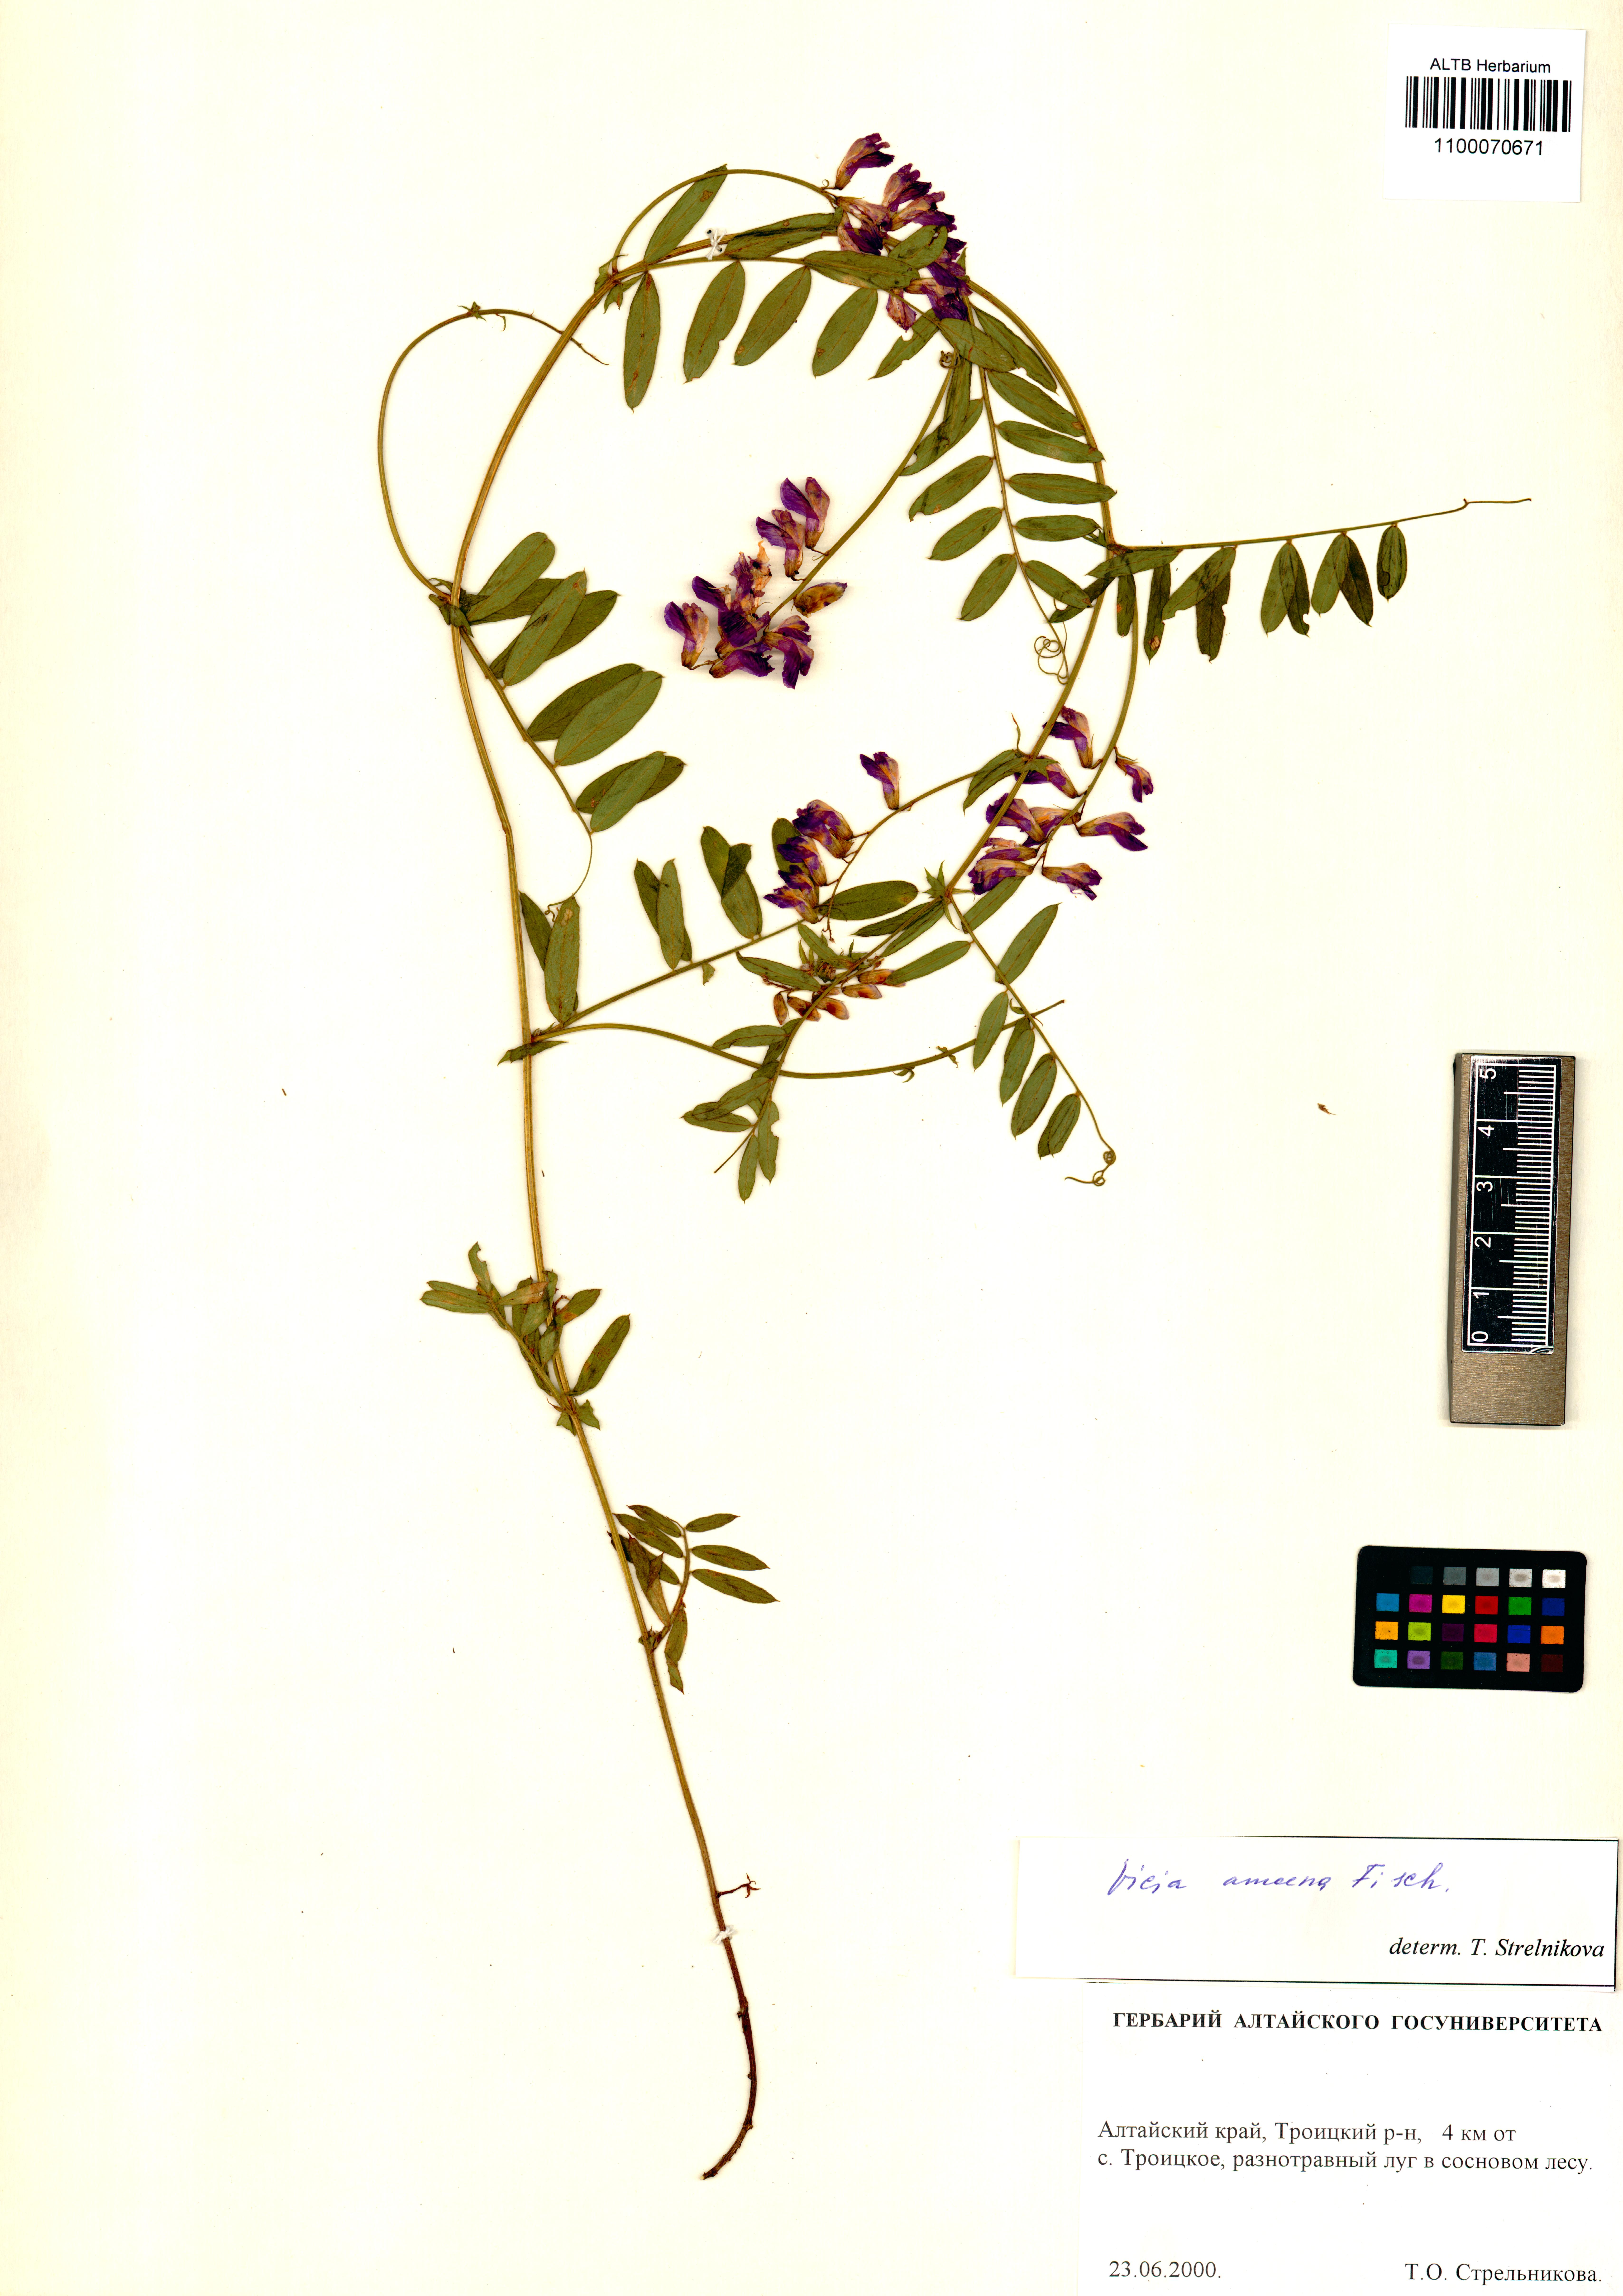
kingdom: Plantae
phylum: Tracheophyta
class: Magnoliopsida
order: Fabales
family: Fabaceae
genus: Vicia
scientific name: Vicia amoena
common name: Cheder ebs
